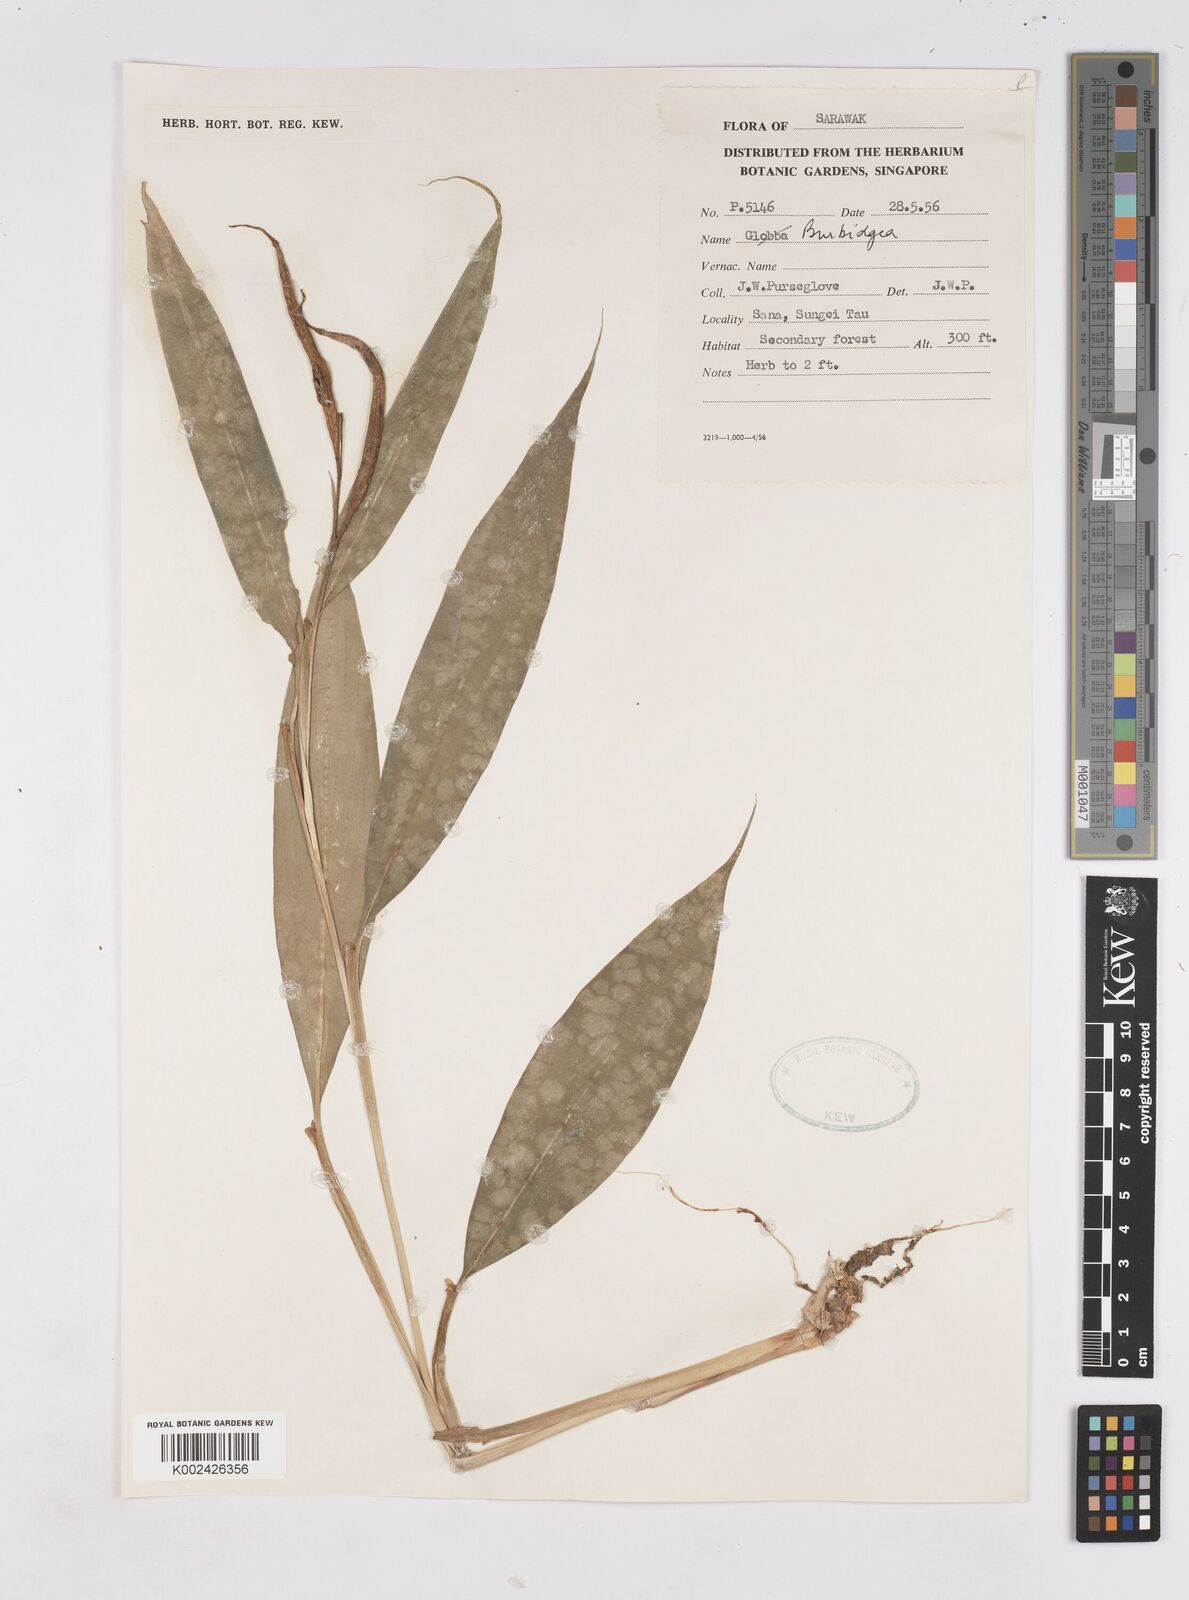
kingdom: Plantae
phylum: Tracheophyta
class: Liliopsida
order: Zingiberales
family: Zingiberaceae
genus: Burbidgea
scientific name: Burbidgea
